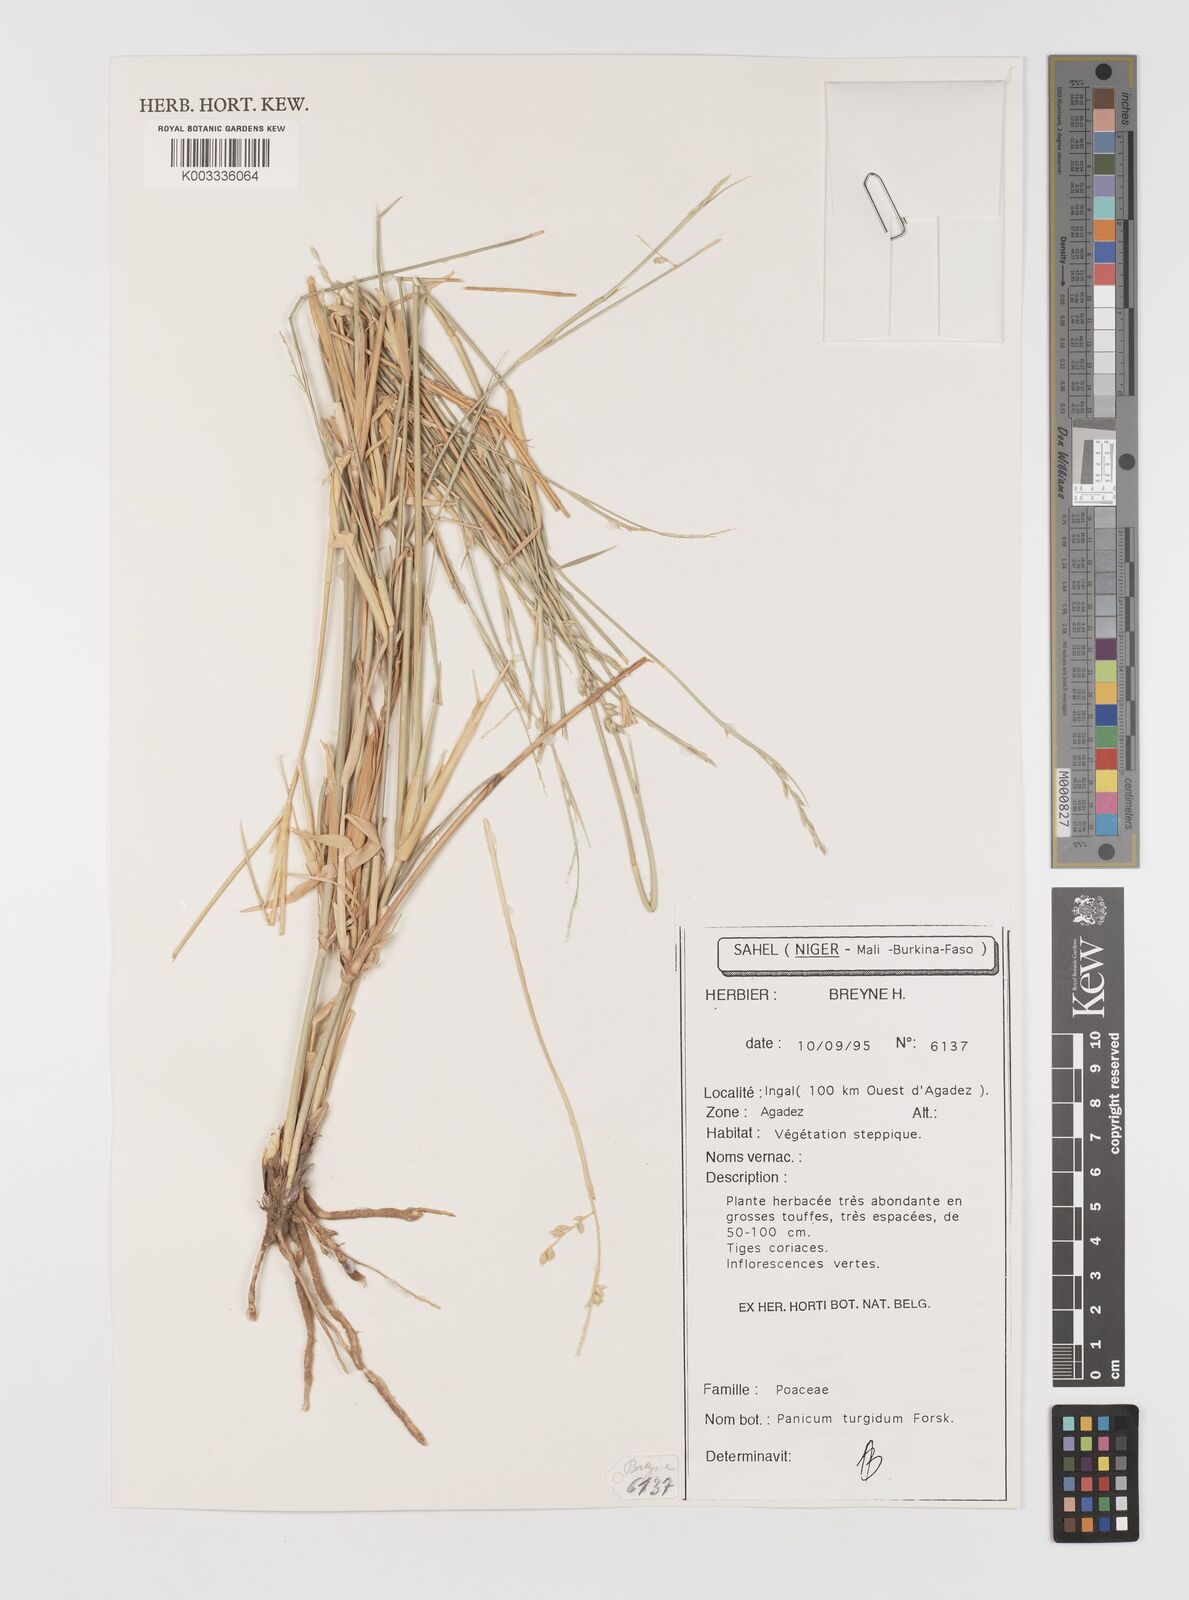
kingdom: Plantae
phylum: Tracheophyta
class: Liliopsida
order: Poales
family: Poaceae
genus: Panicum
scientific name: Panicum turgidum
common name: Desert grass
